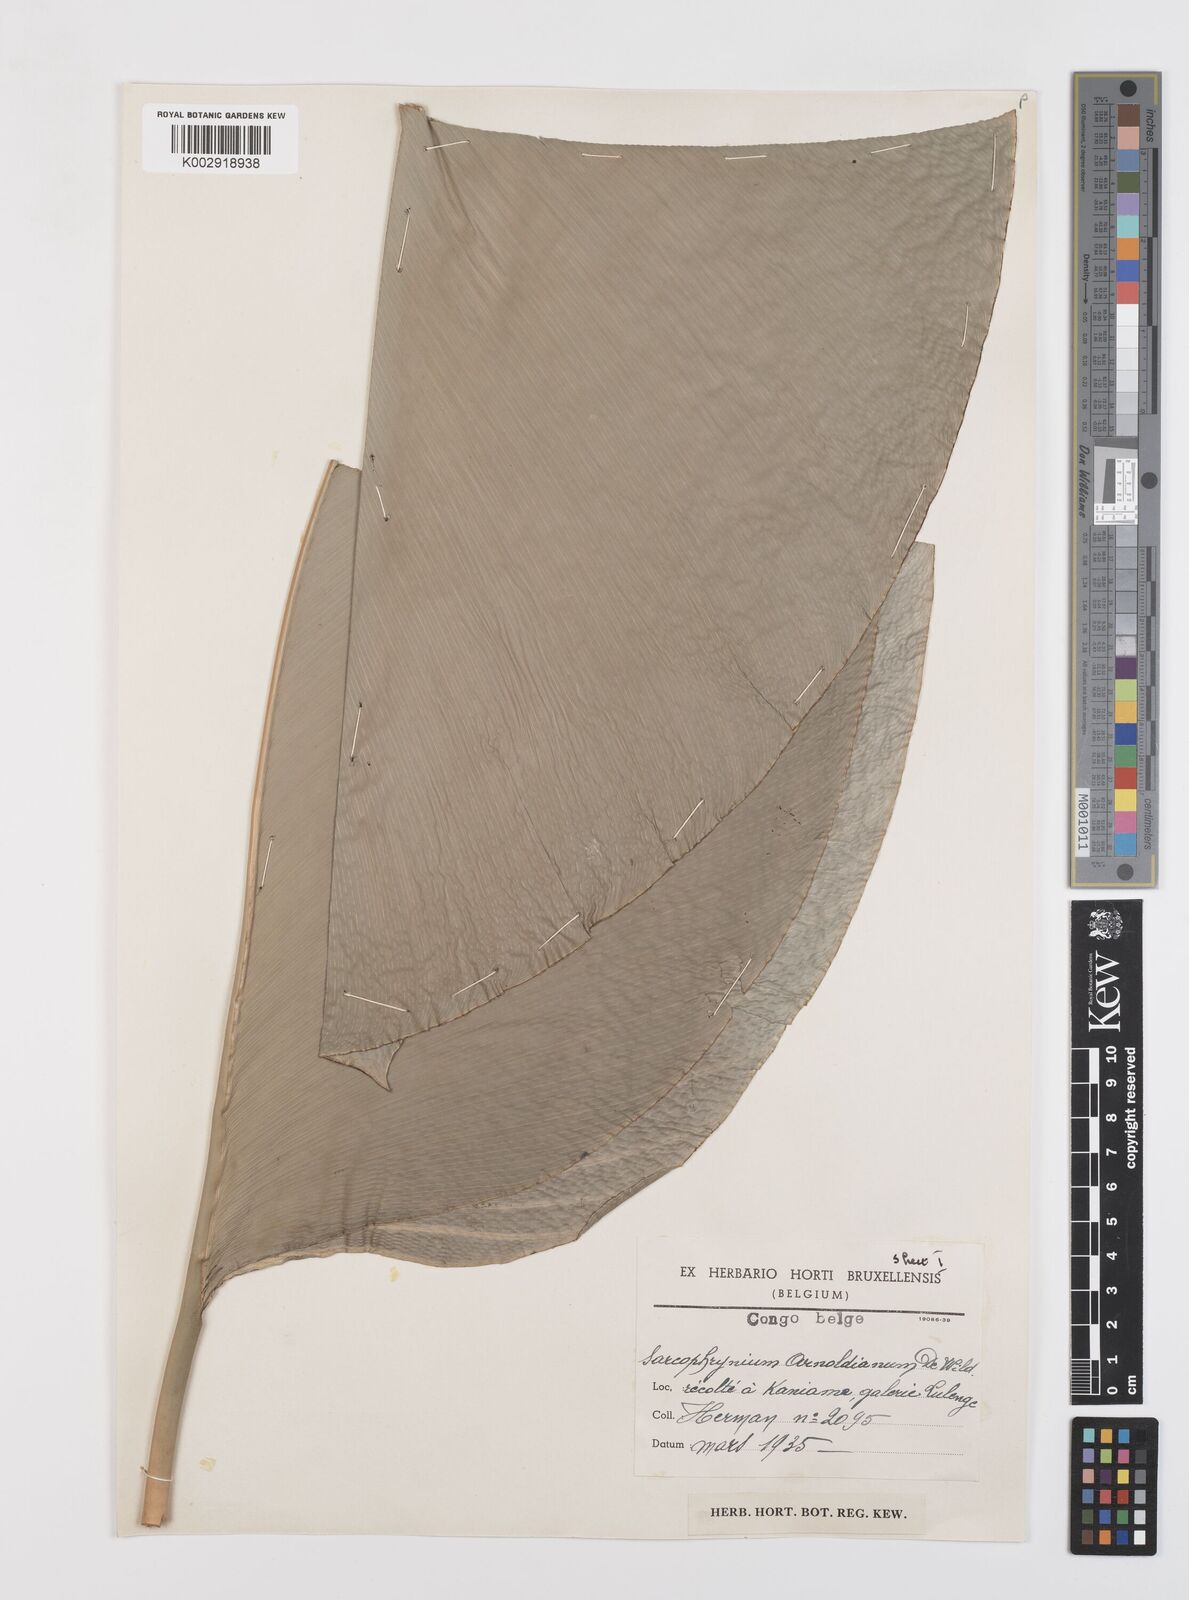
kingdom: Plantae
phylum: Tracheophyta
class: Liliopsida
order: Zingiberales
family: Marantaceae
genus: Megaphrynium
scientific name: Megaphrynium macrostachyum
